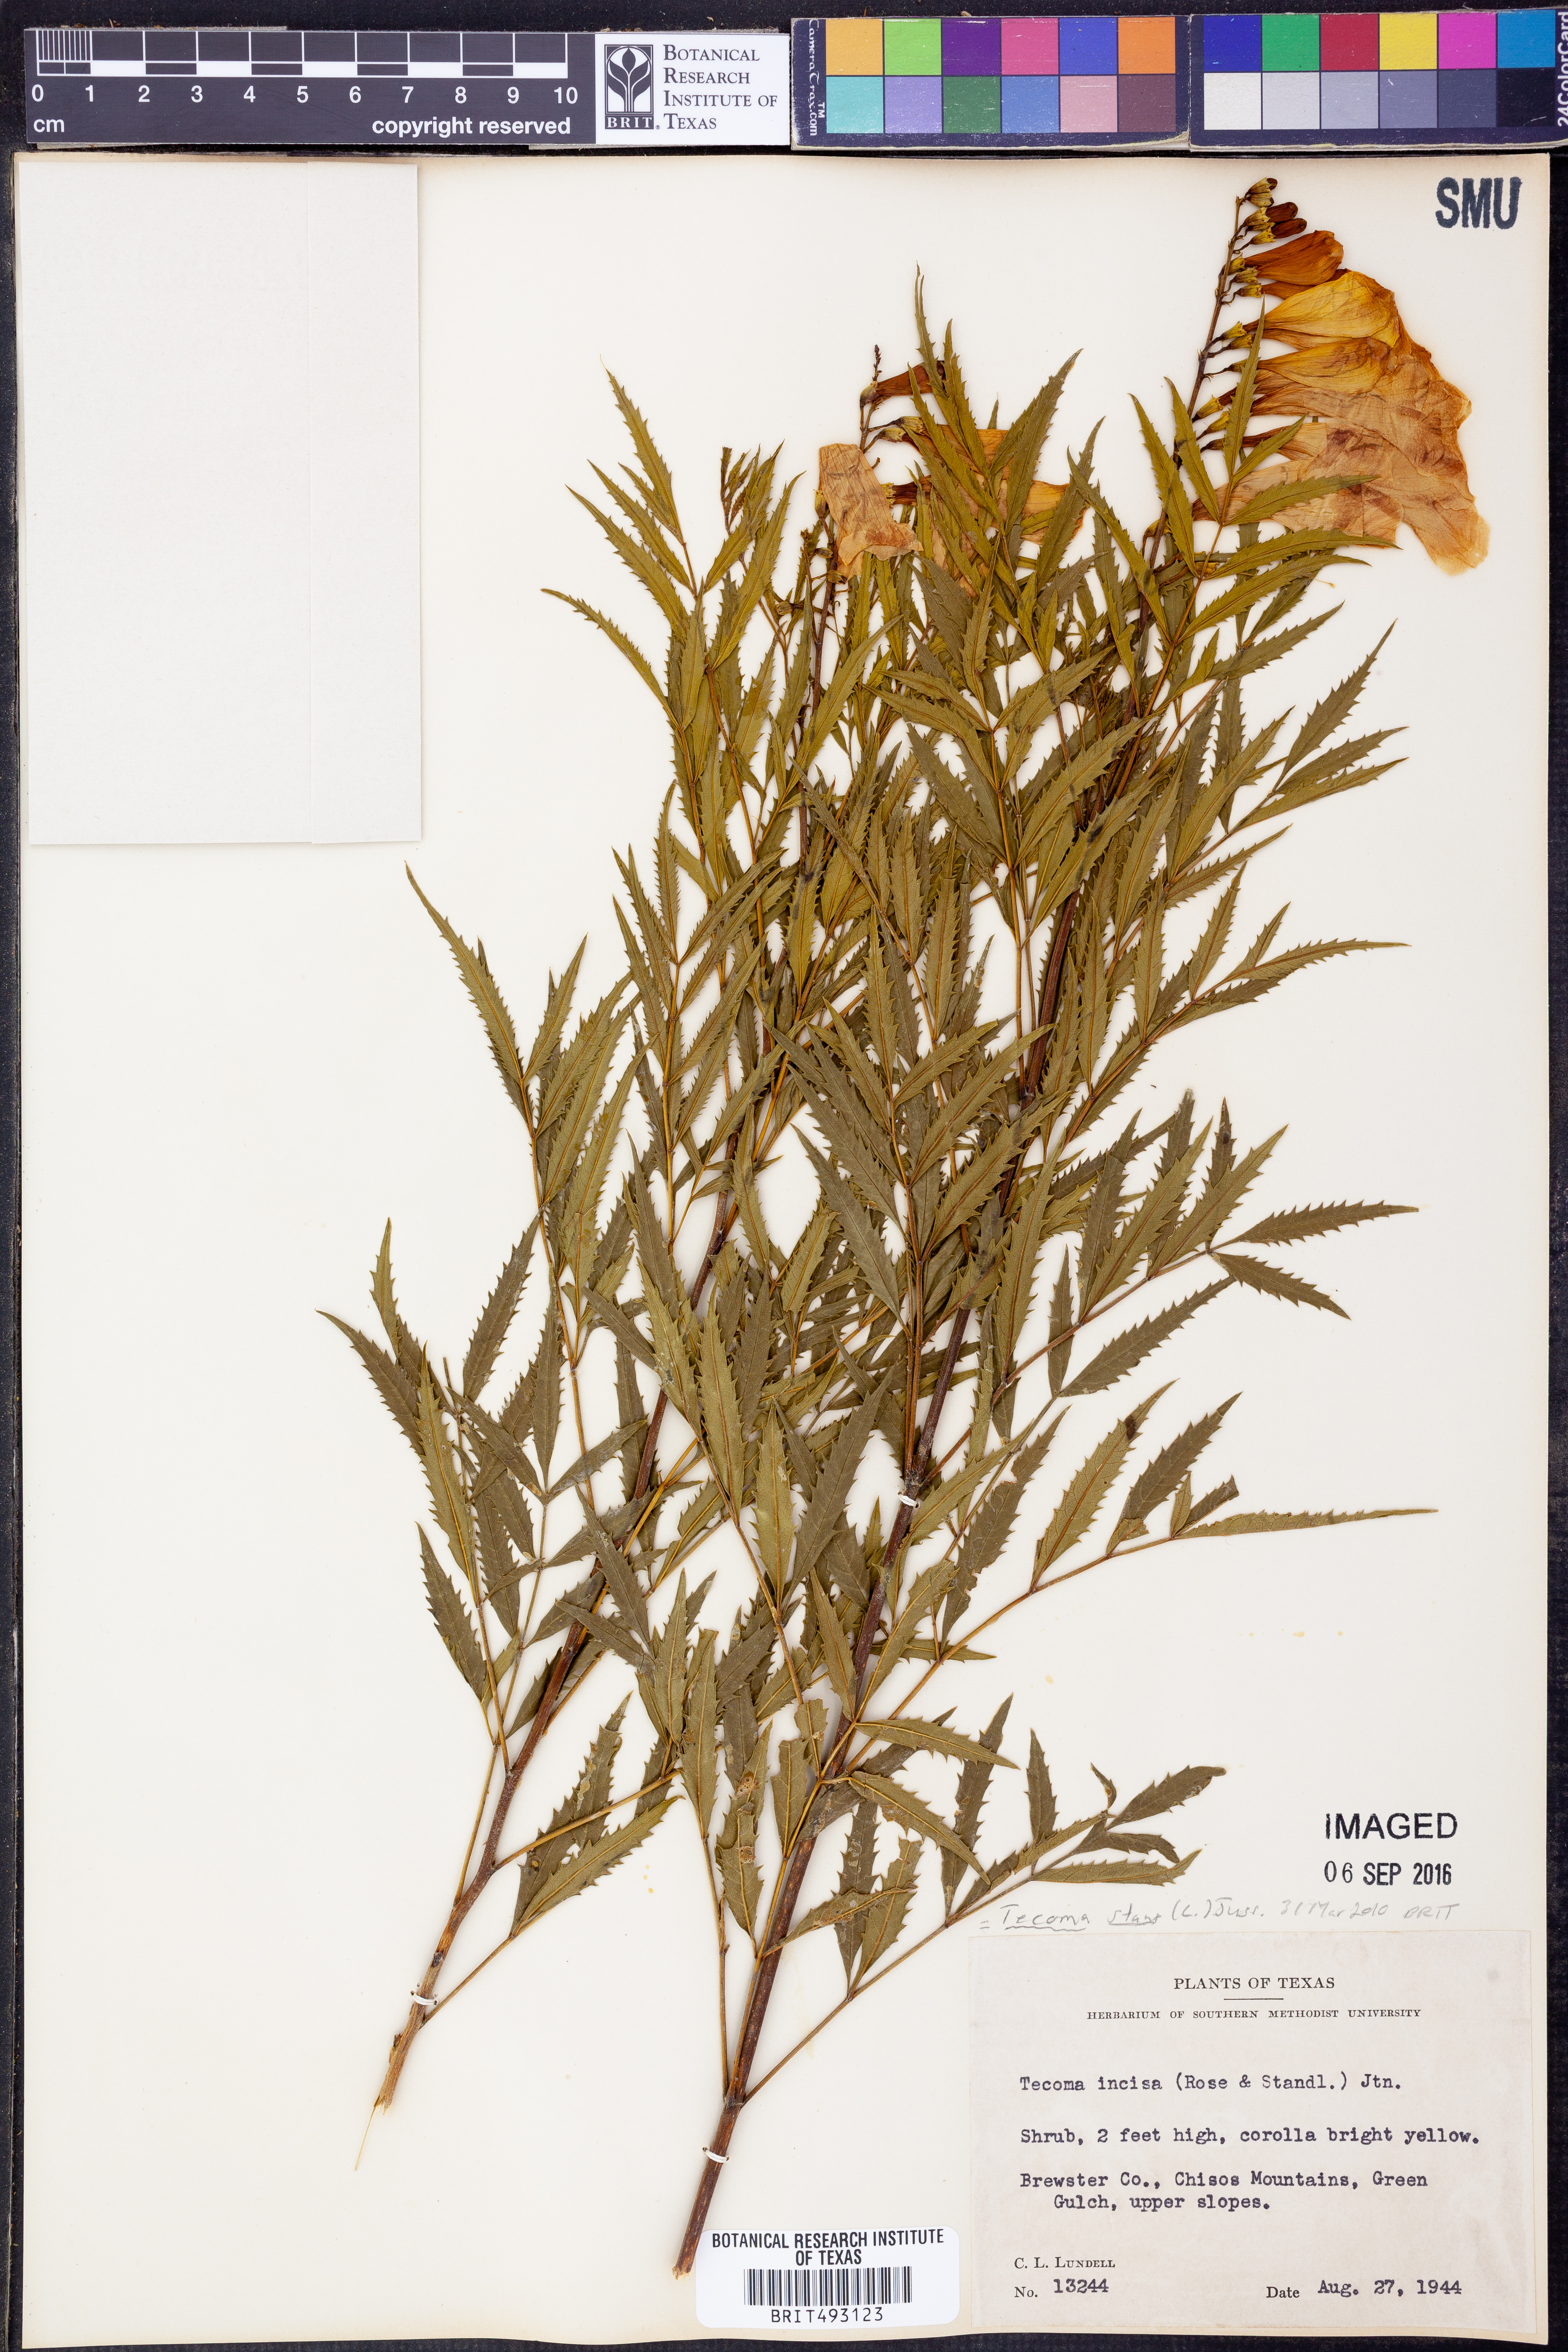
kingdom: Plantae
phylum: Tracheophyta
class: Magnoliopsida
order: Lamiales
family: Bignoniaceae
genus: Tecoma
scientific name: Tecoma stans
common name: Yellow trumpetbush
